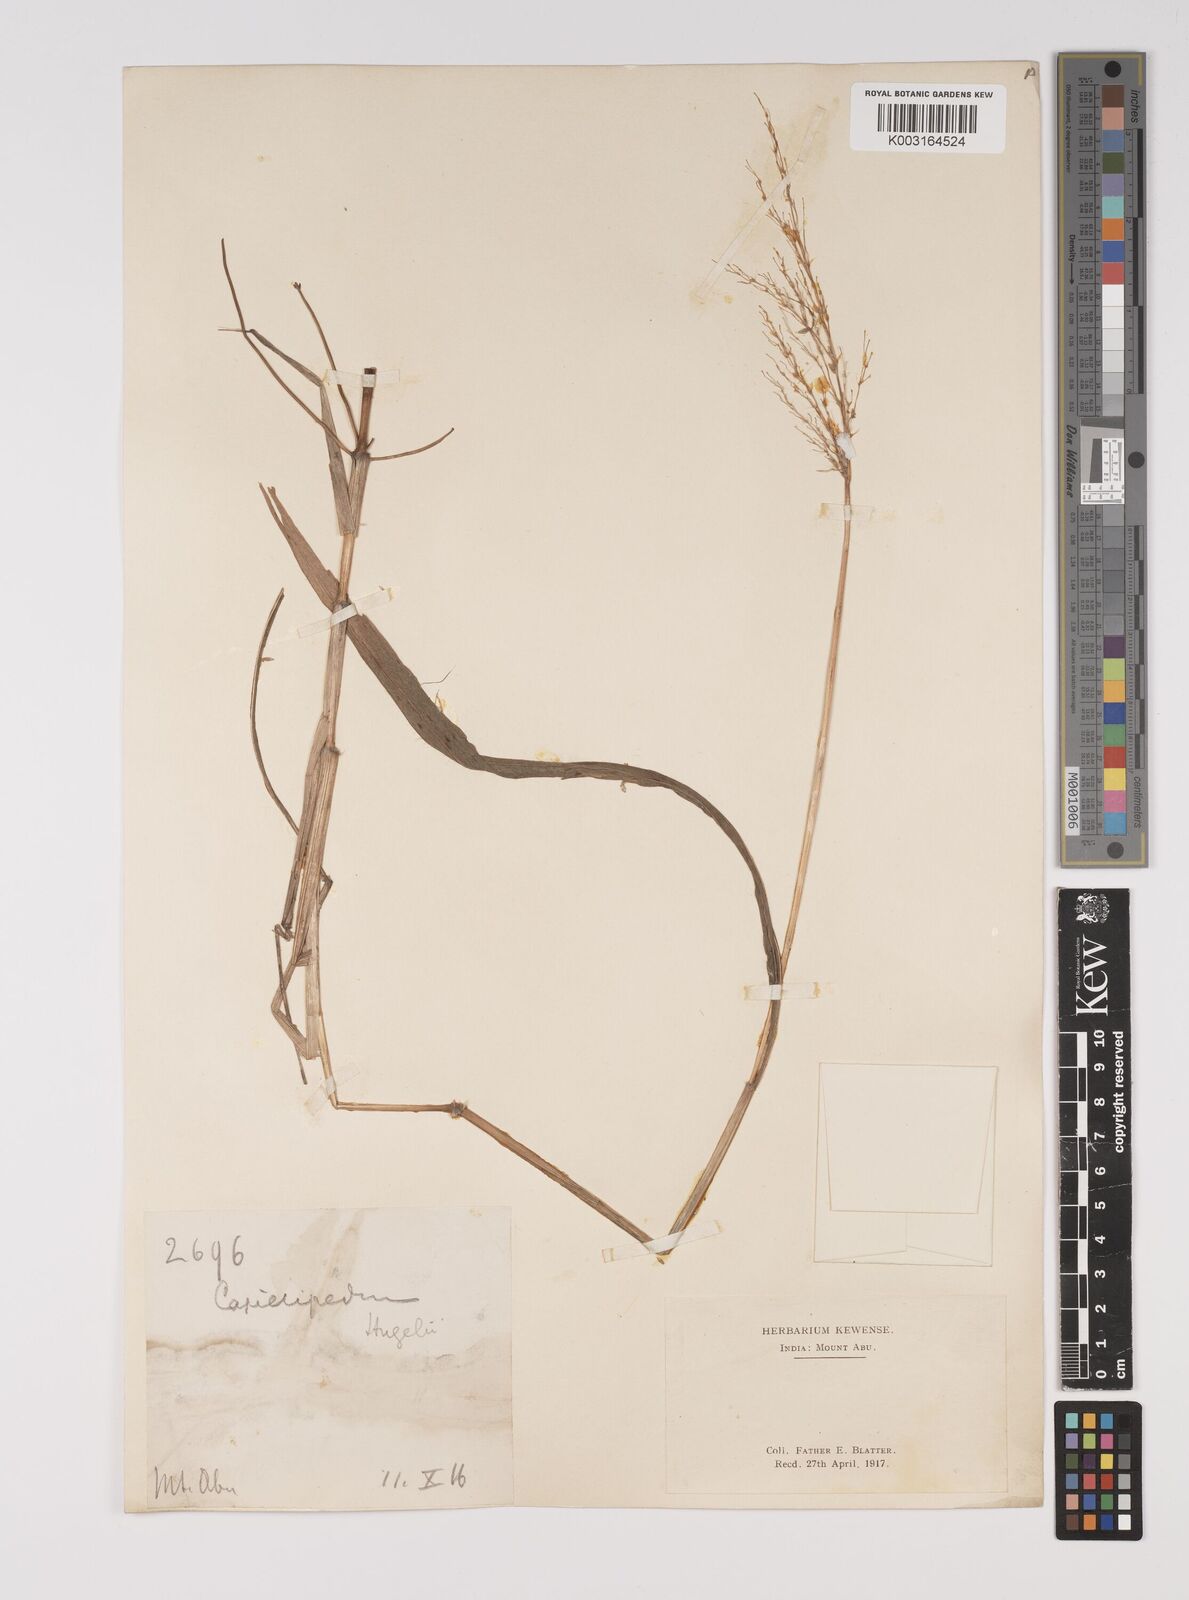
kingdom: Plantae
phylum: Tracheophyta
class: Liliopsida
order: Poales
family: Poaceae
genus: Capillipedium
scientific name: Capillipedium huegelii
